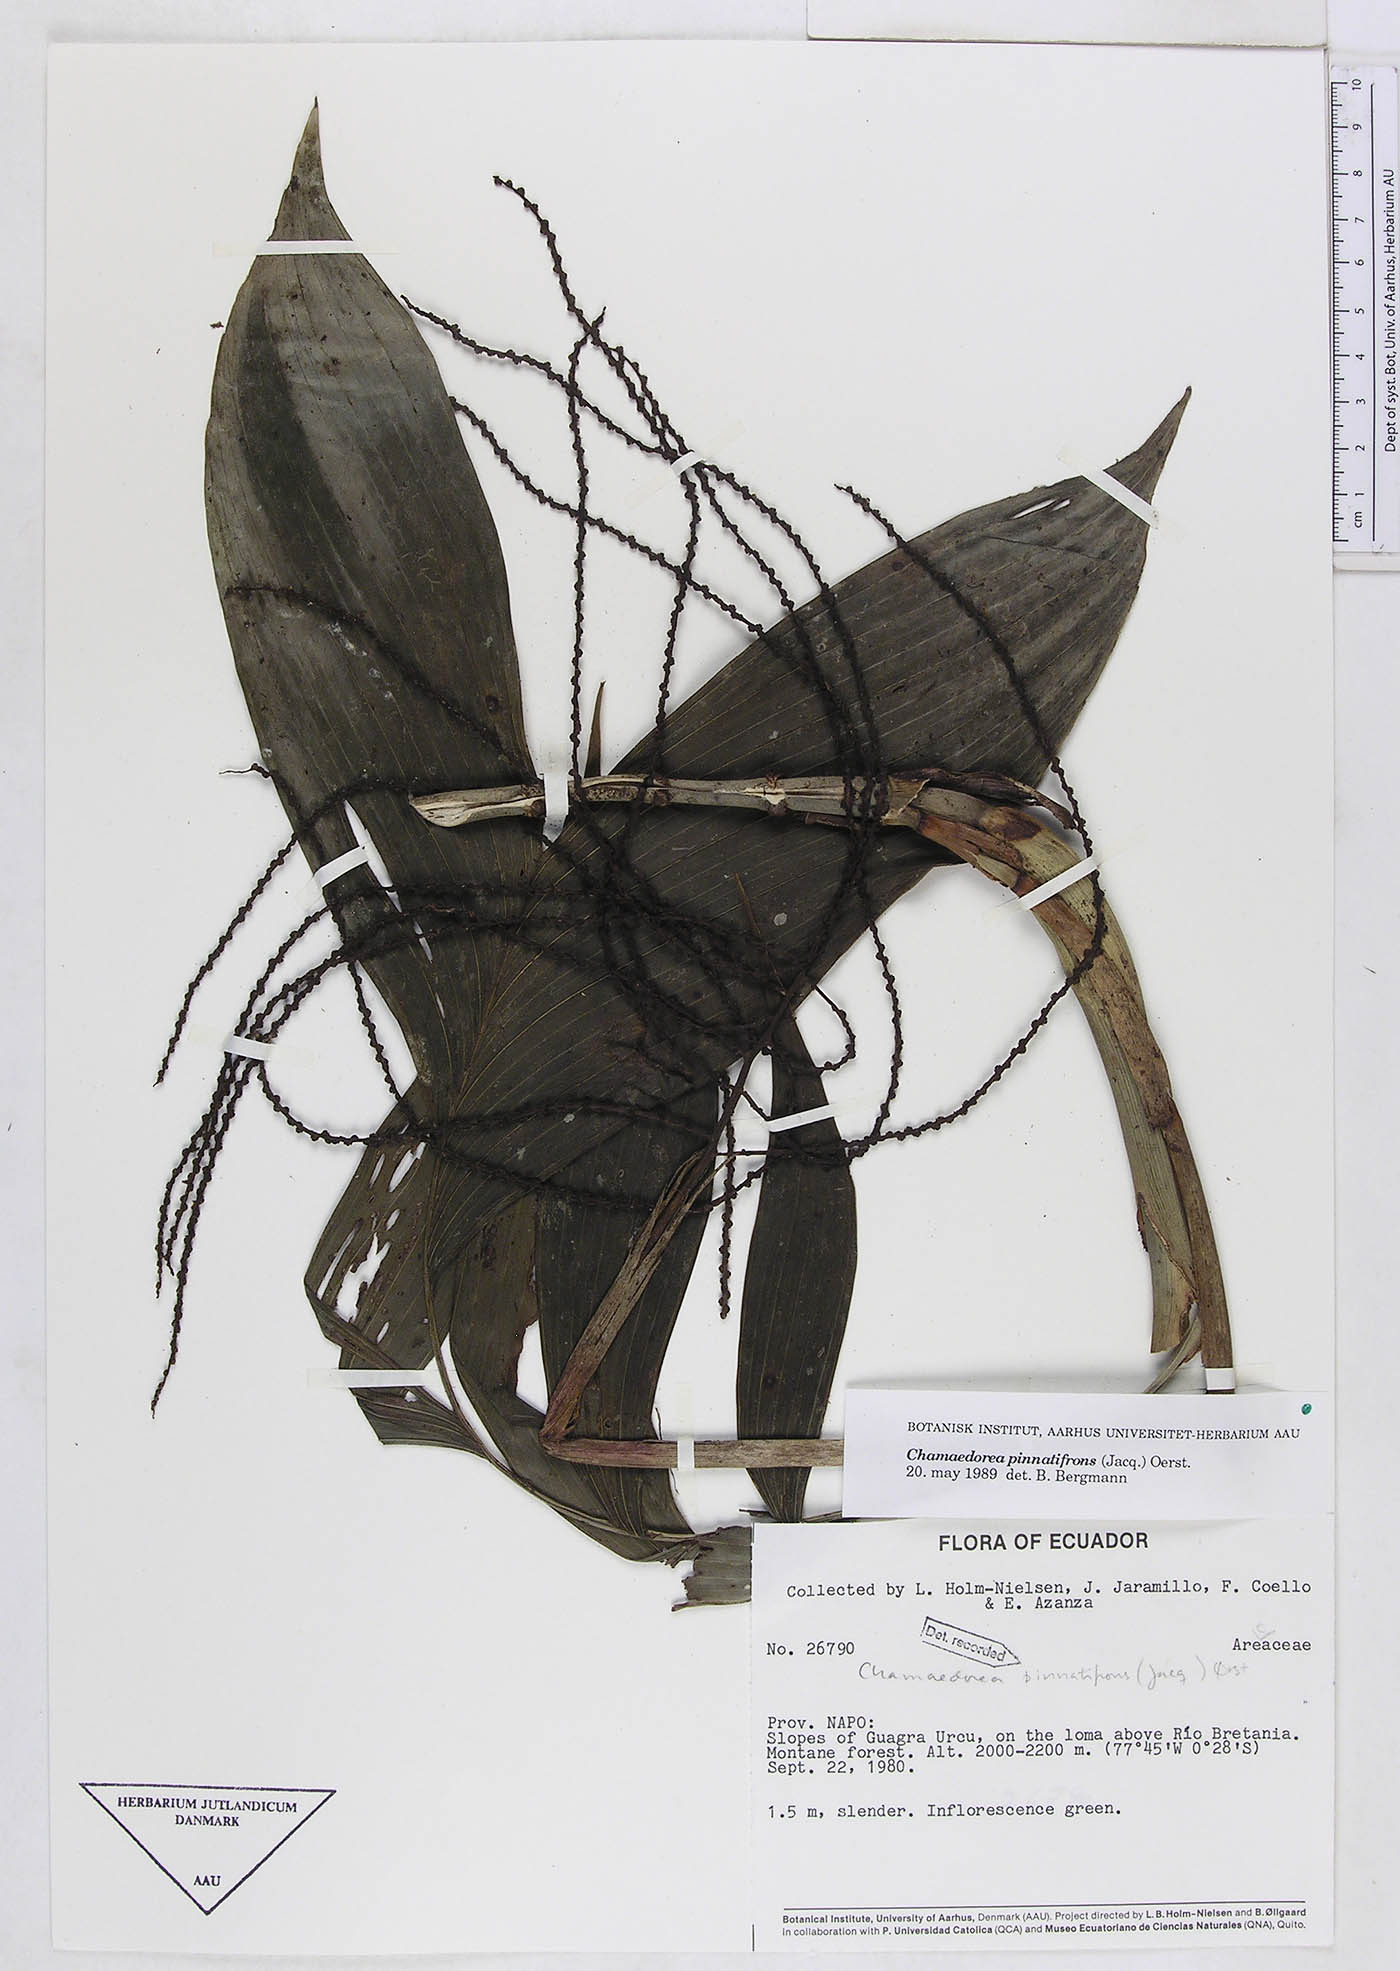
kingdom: Plantae
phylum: Tracheophyta
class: Liliopsida
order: Arecales
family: Arecaceae
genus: Chamaedorea
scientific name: Chamaedorea pinnatifrons
